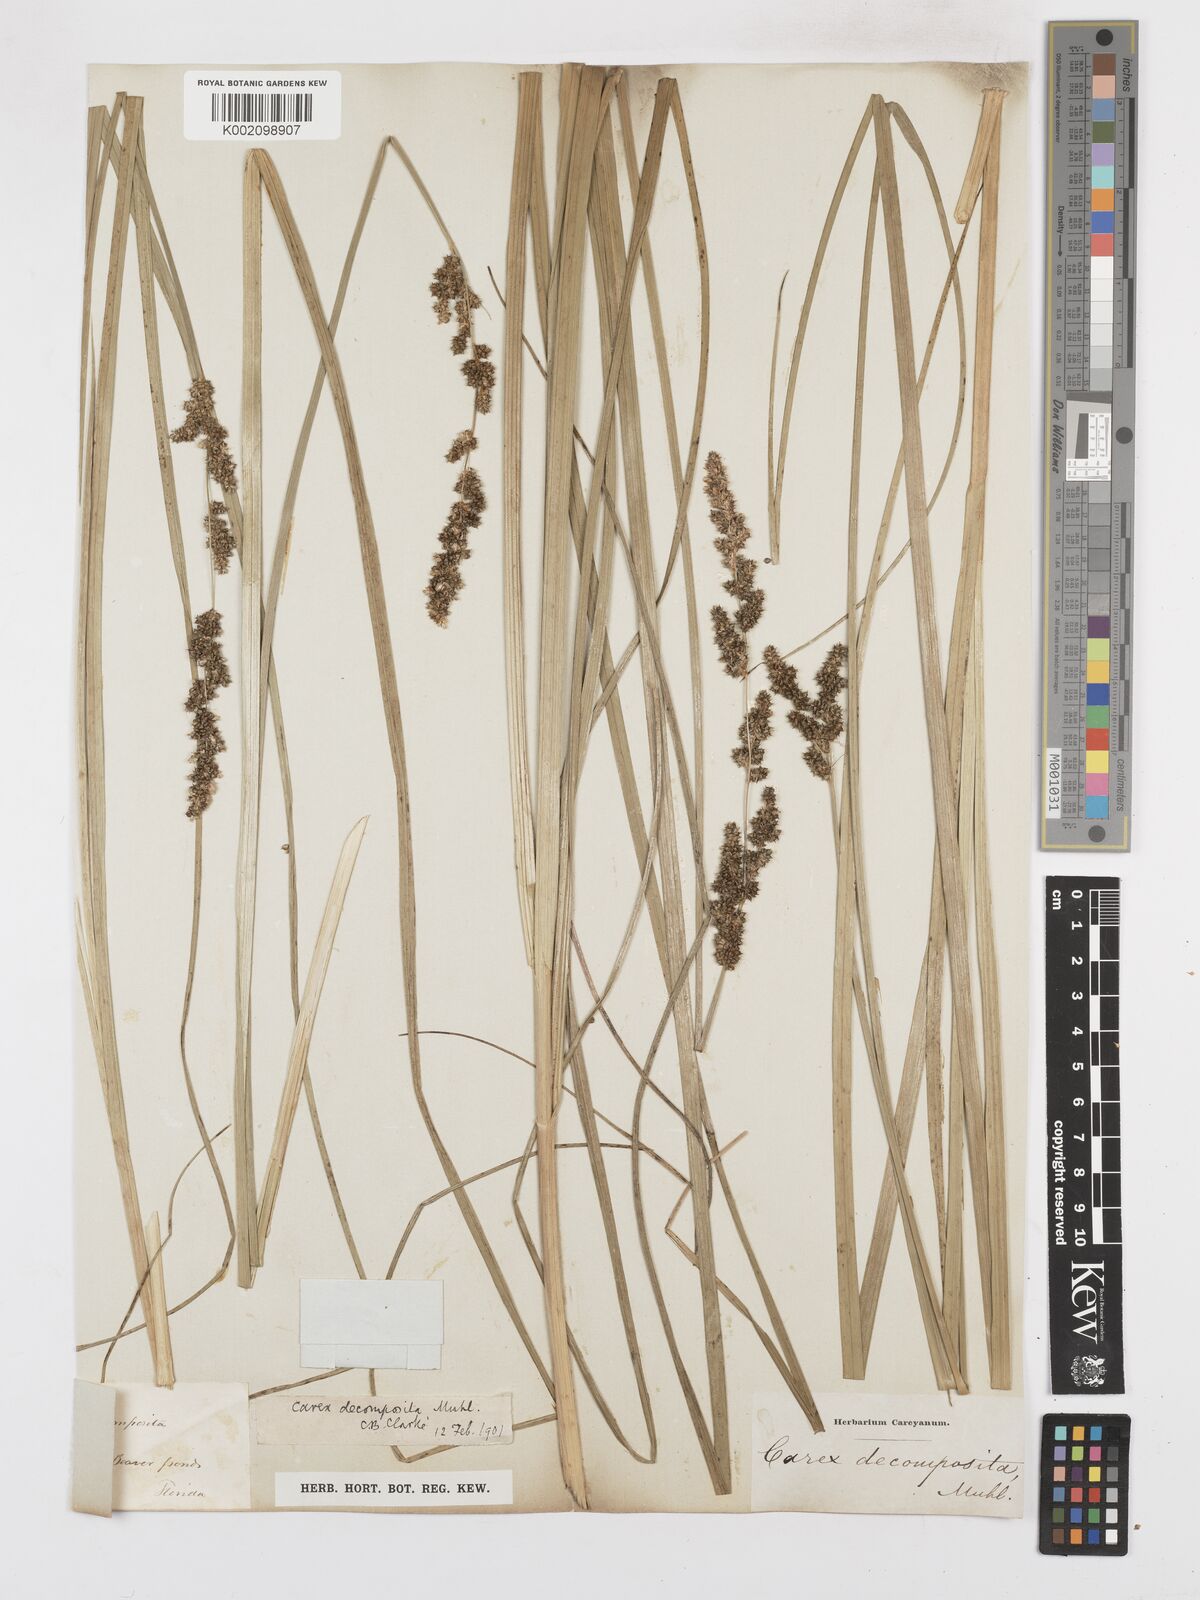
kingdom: Plantae
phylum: Tracheophyta
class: Liliopsida
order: Poales
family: Cyperaceae
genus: Carex
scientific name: Carex decomposita
